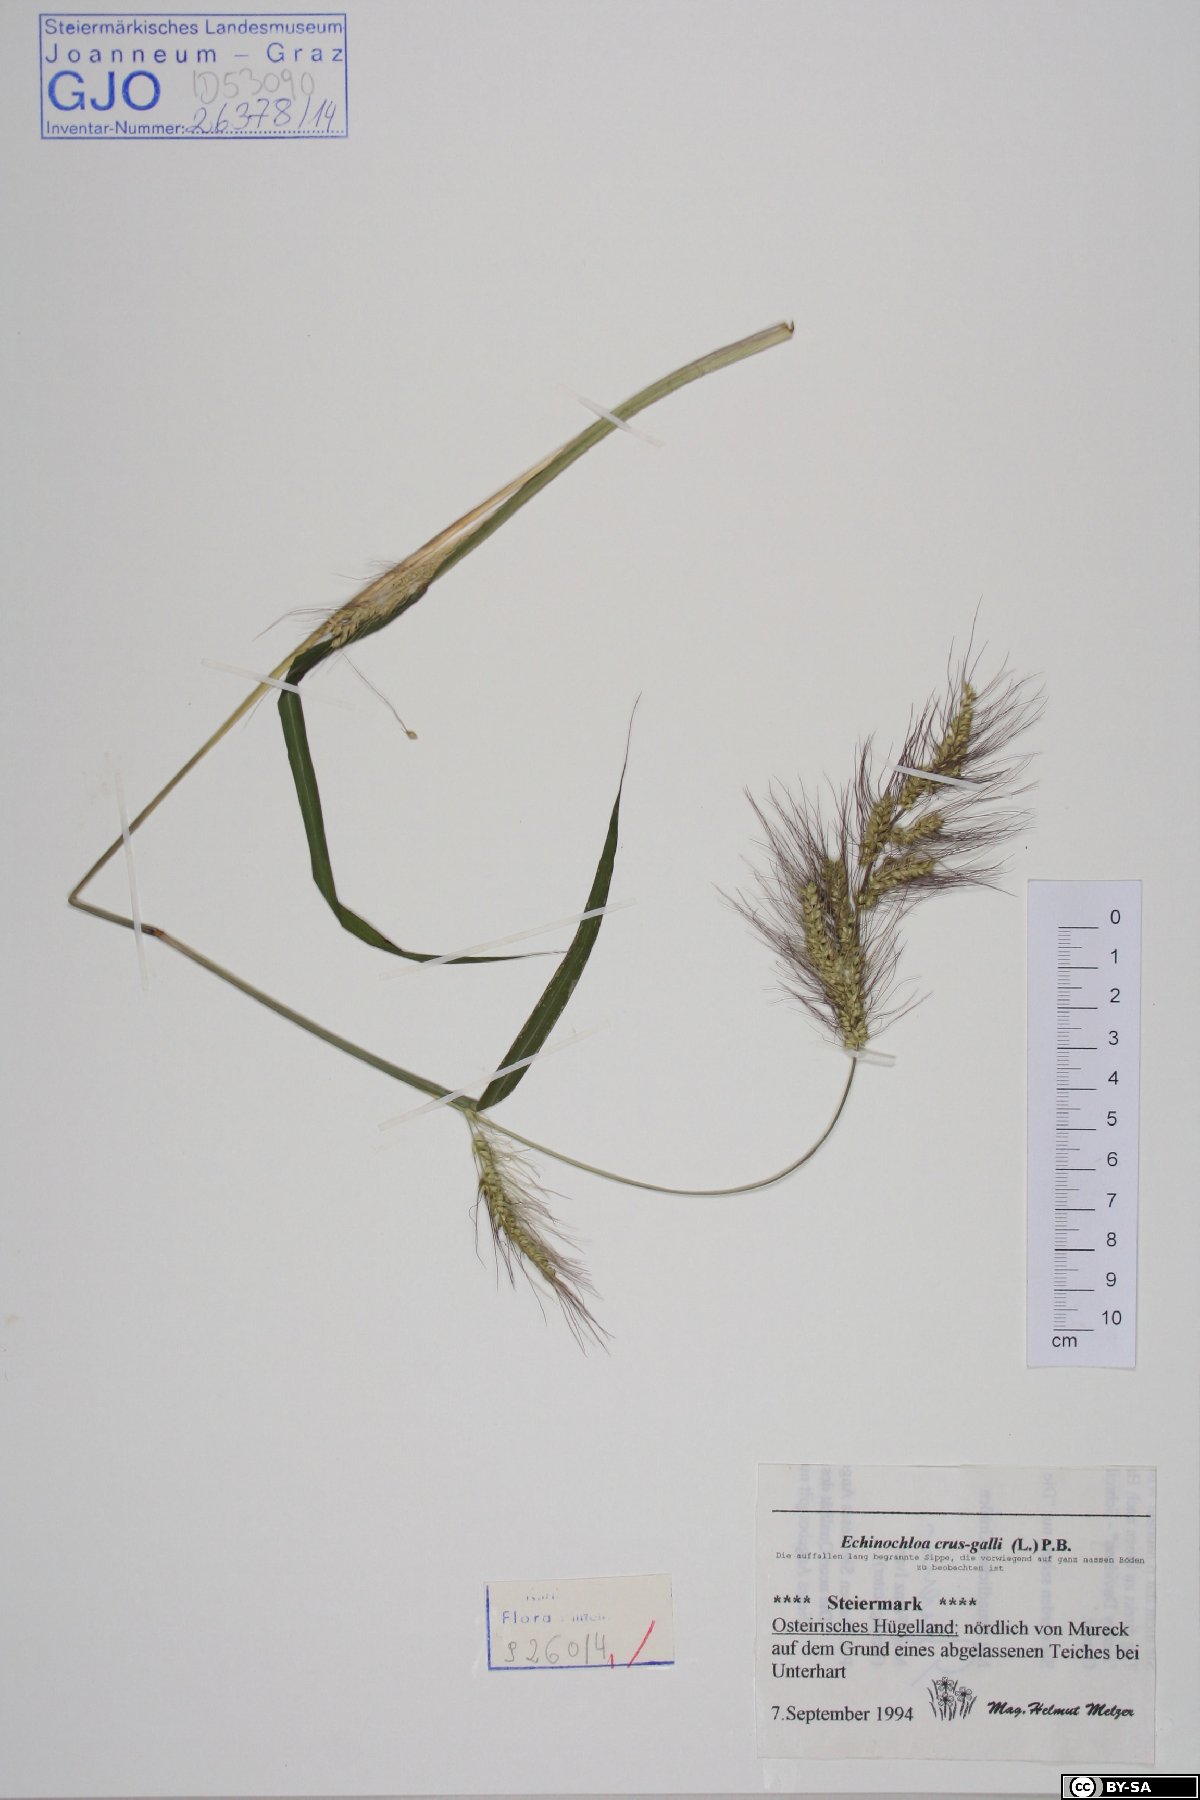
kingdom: Plantae
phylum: Tracheophyta
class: Liliopsida
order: Poales
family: Poaceae
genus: Echinochloa
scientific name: Echinochloa crus-galli
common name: Cockspur
